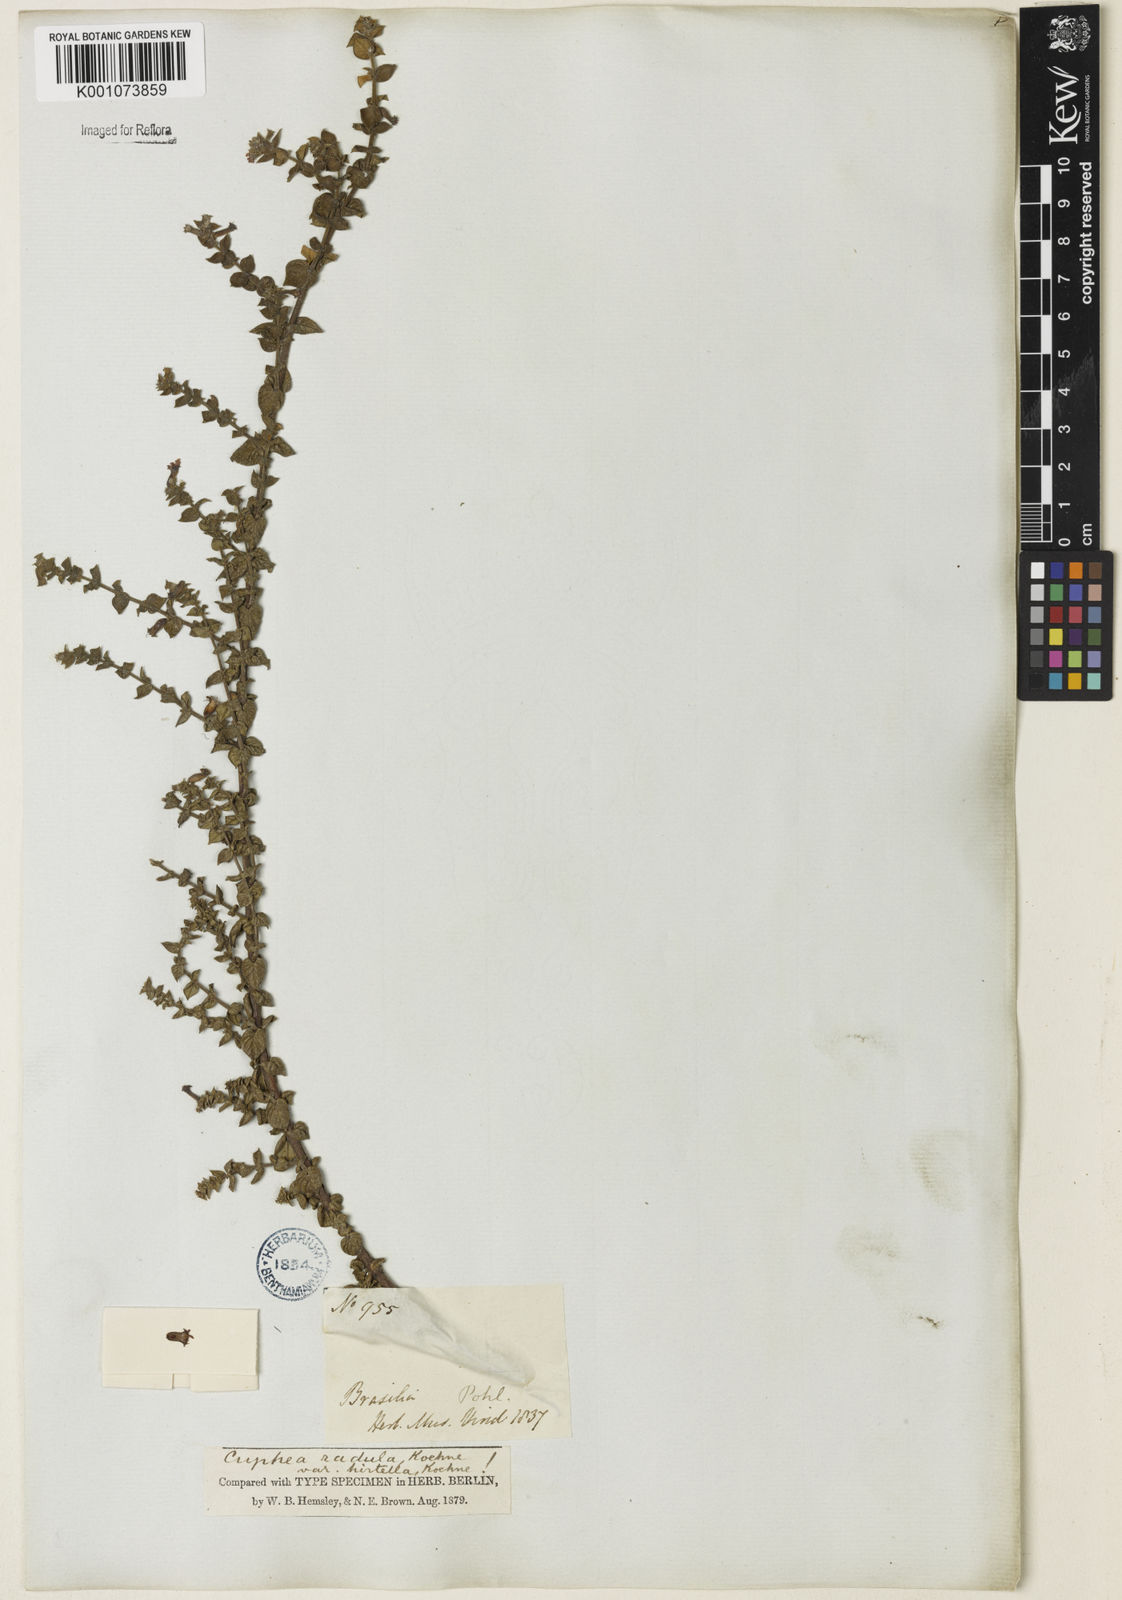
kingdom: Plantae
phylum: Tracheophyta
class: Magnoliopsida
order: Myrtales
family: Lythraceae
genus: Cuphea
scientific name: Cuphea antisyphilitica
